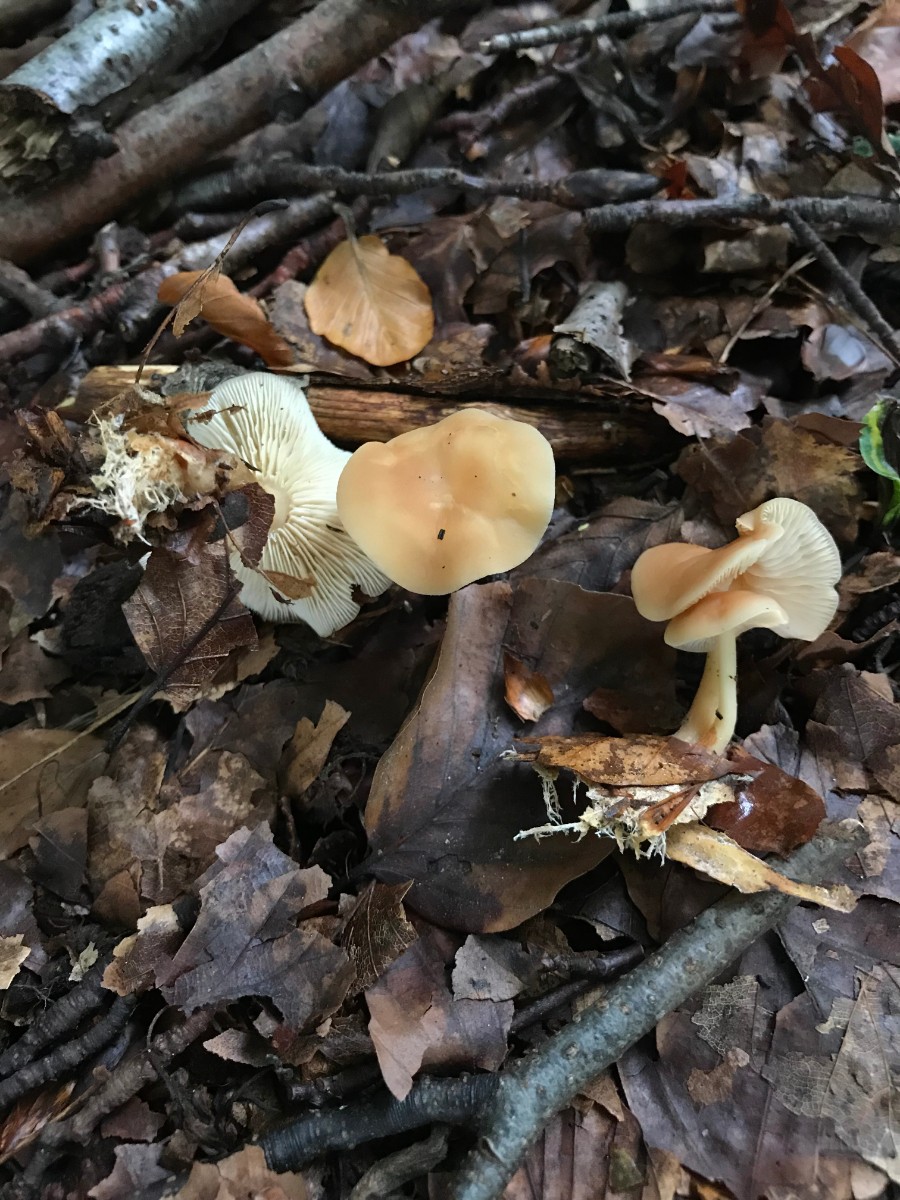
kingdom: Fungi
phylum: Basidiomycota
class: Agaricomycetes
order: Agaricales
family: Omphalotaceae
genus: Gymnopus
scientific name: Gymnopus dryophilus
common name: løv-fladhat
